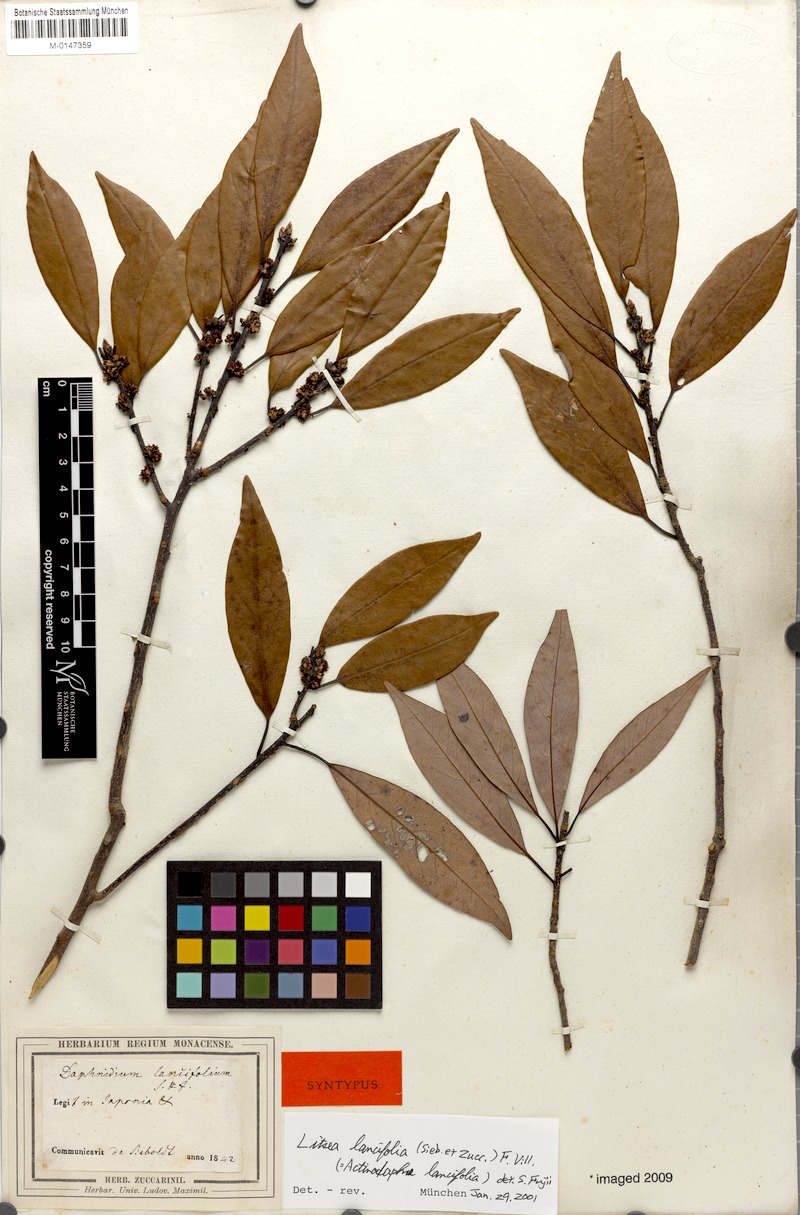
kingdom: Plantae
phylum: Tracheophyta
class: Magnoliopsida
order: Laurales
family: Lauraceae
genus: Litsea
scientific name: Litsea lancifolia
